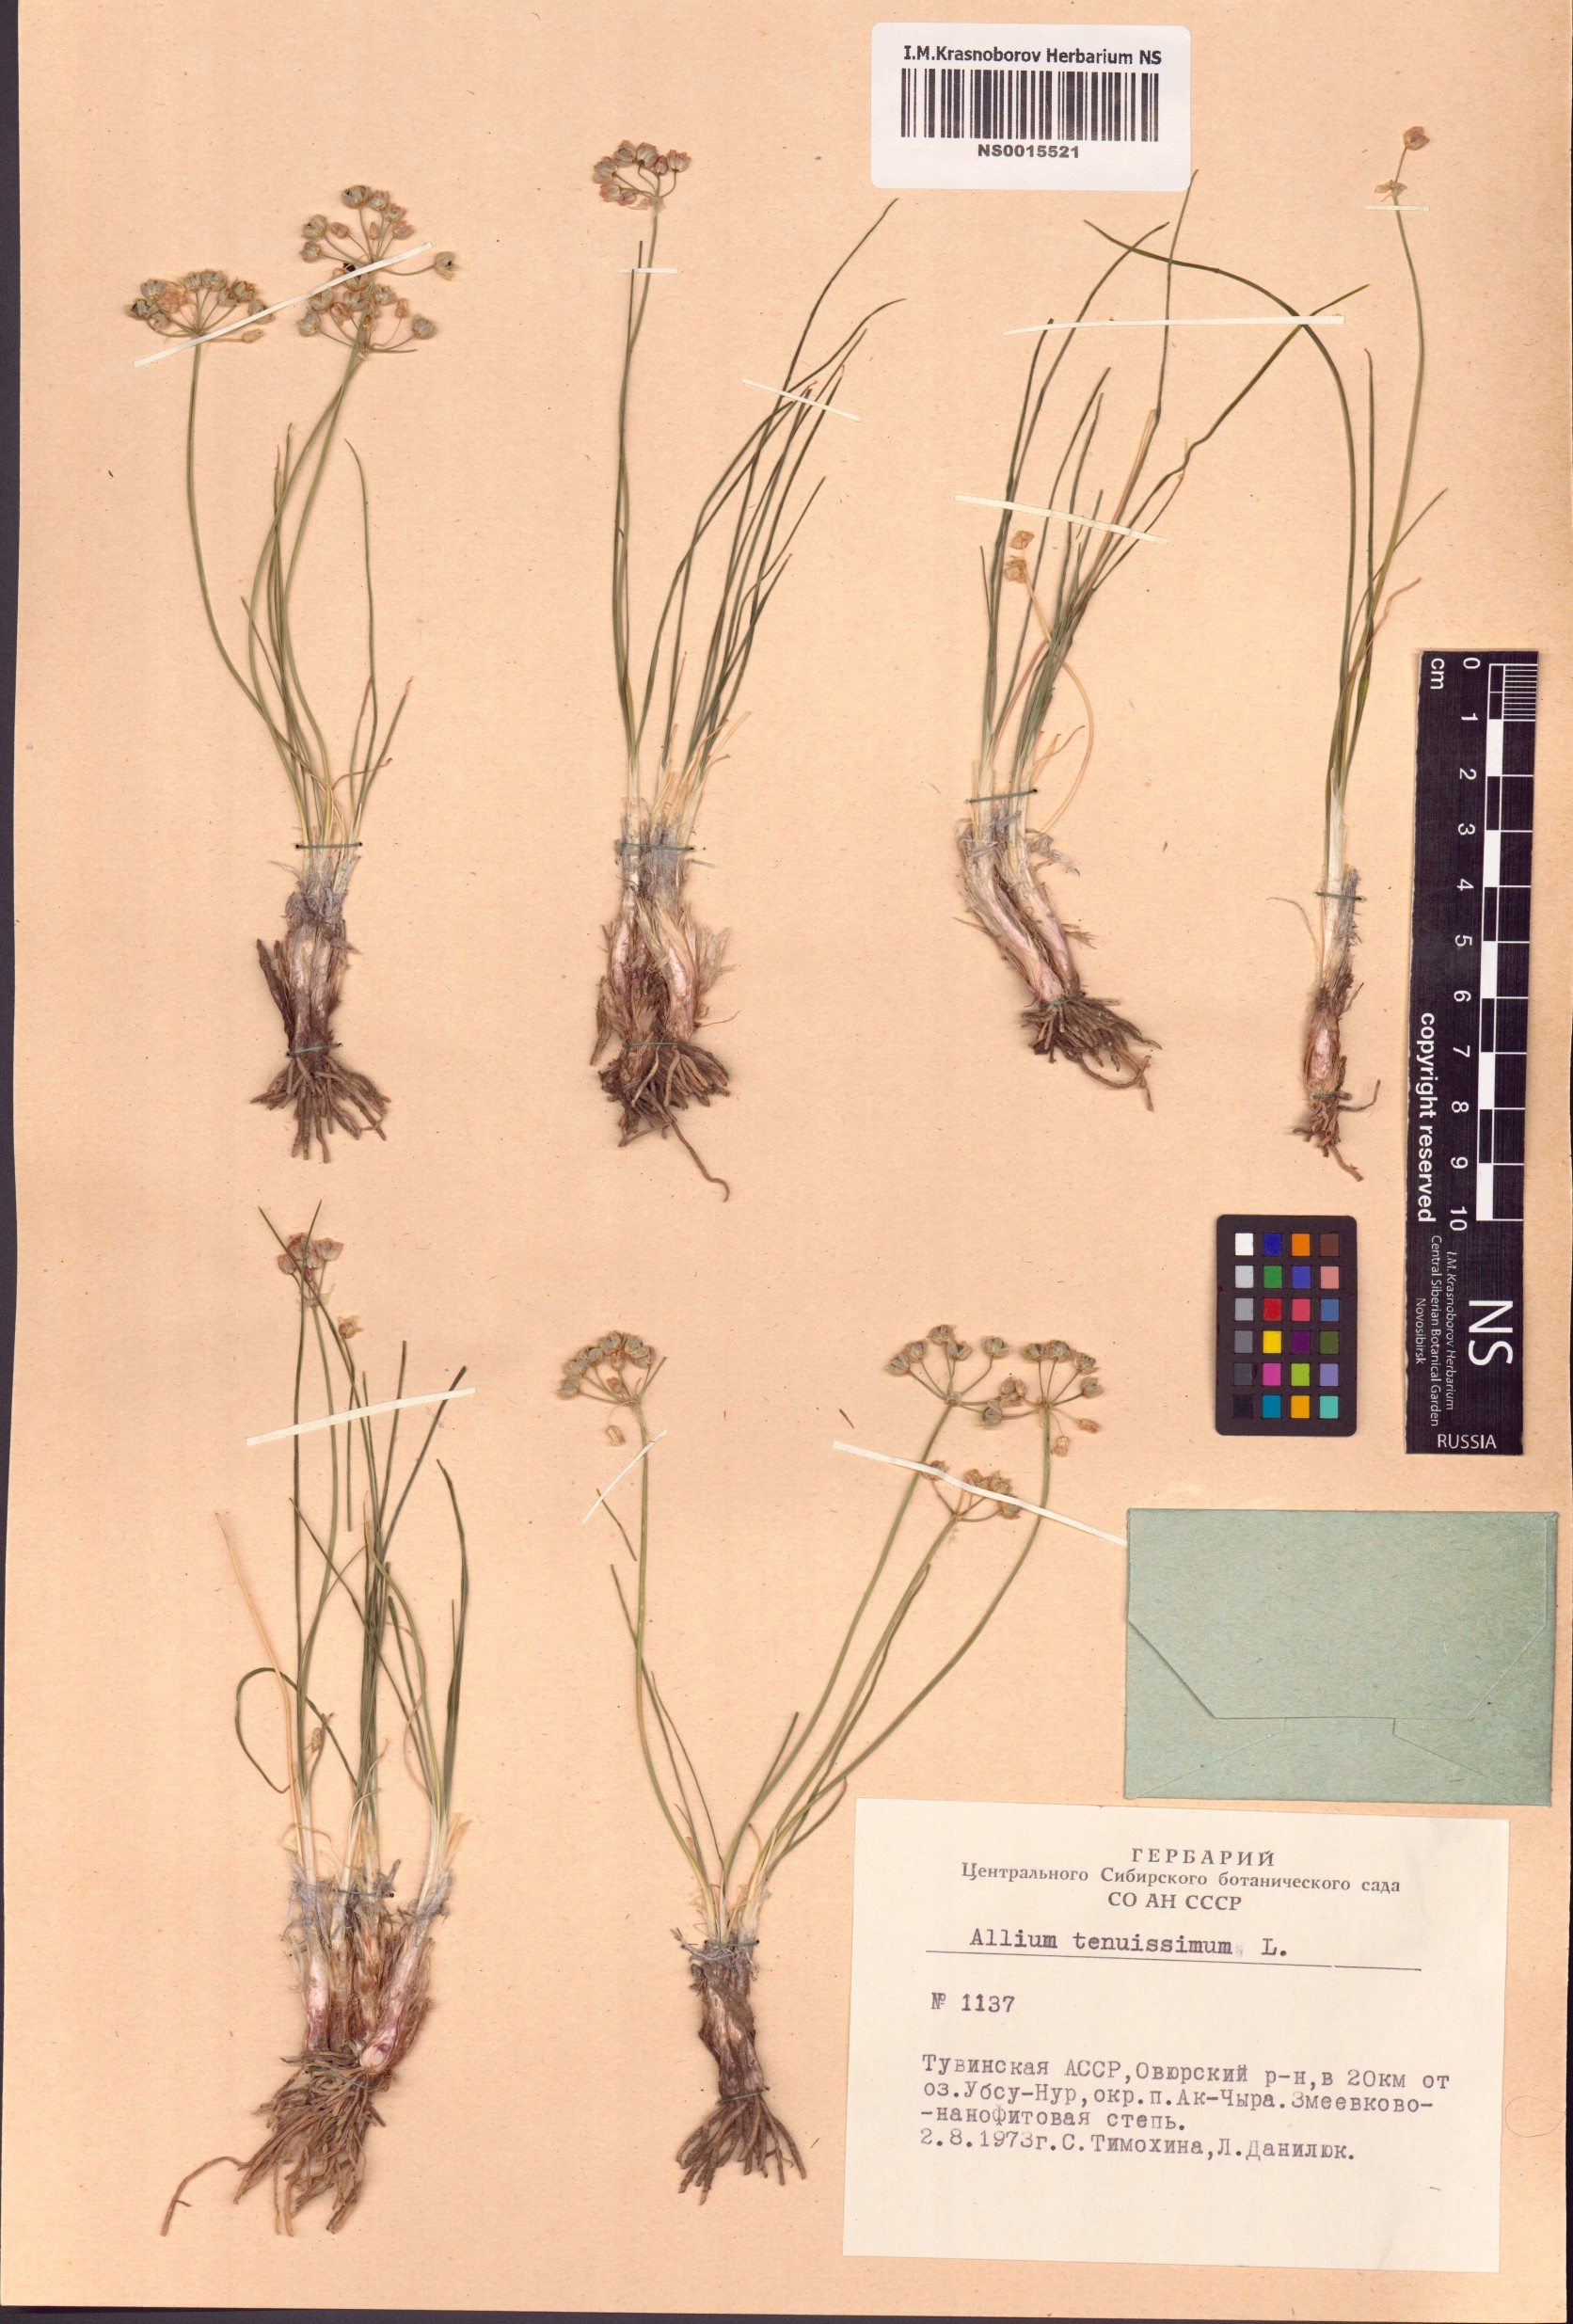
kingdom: Plantae
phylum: Tracheophyta
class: Liliopsida
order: Asparagales
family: Amaryllidaceae
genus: Allium
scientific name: Allium tenuissimum
